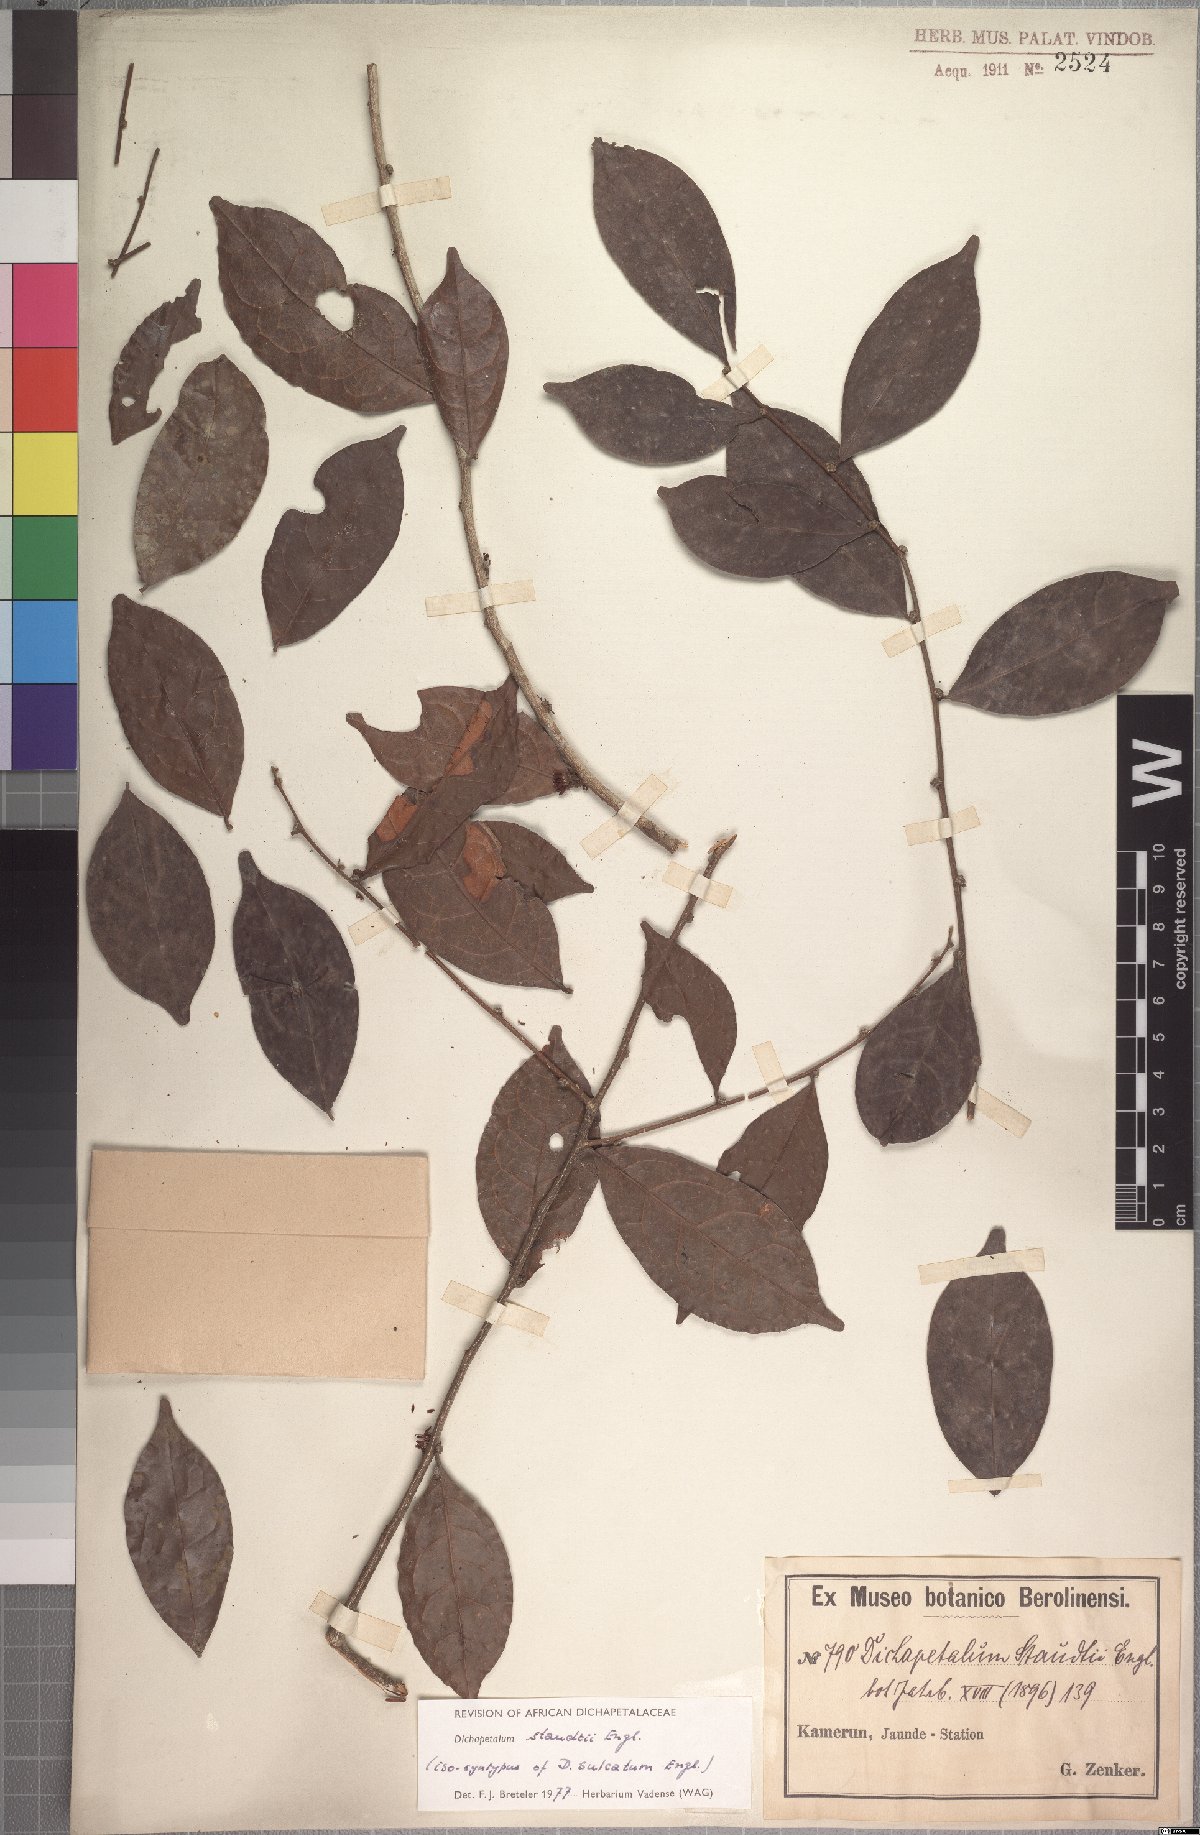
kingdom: Plantae
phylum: Tracheophyta
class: Magnoliopsida
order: Malpighiales
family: Dichapetalaceae
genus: Dichapetalum
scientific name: Dichapetalum staudtii
